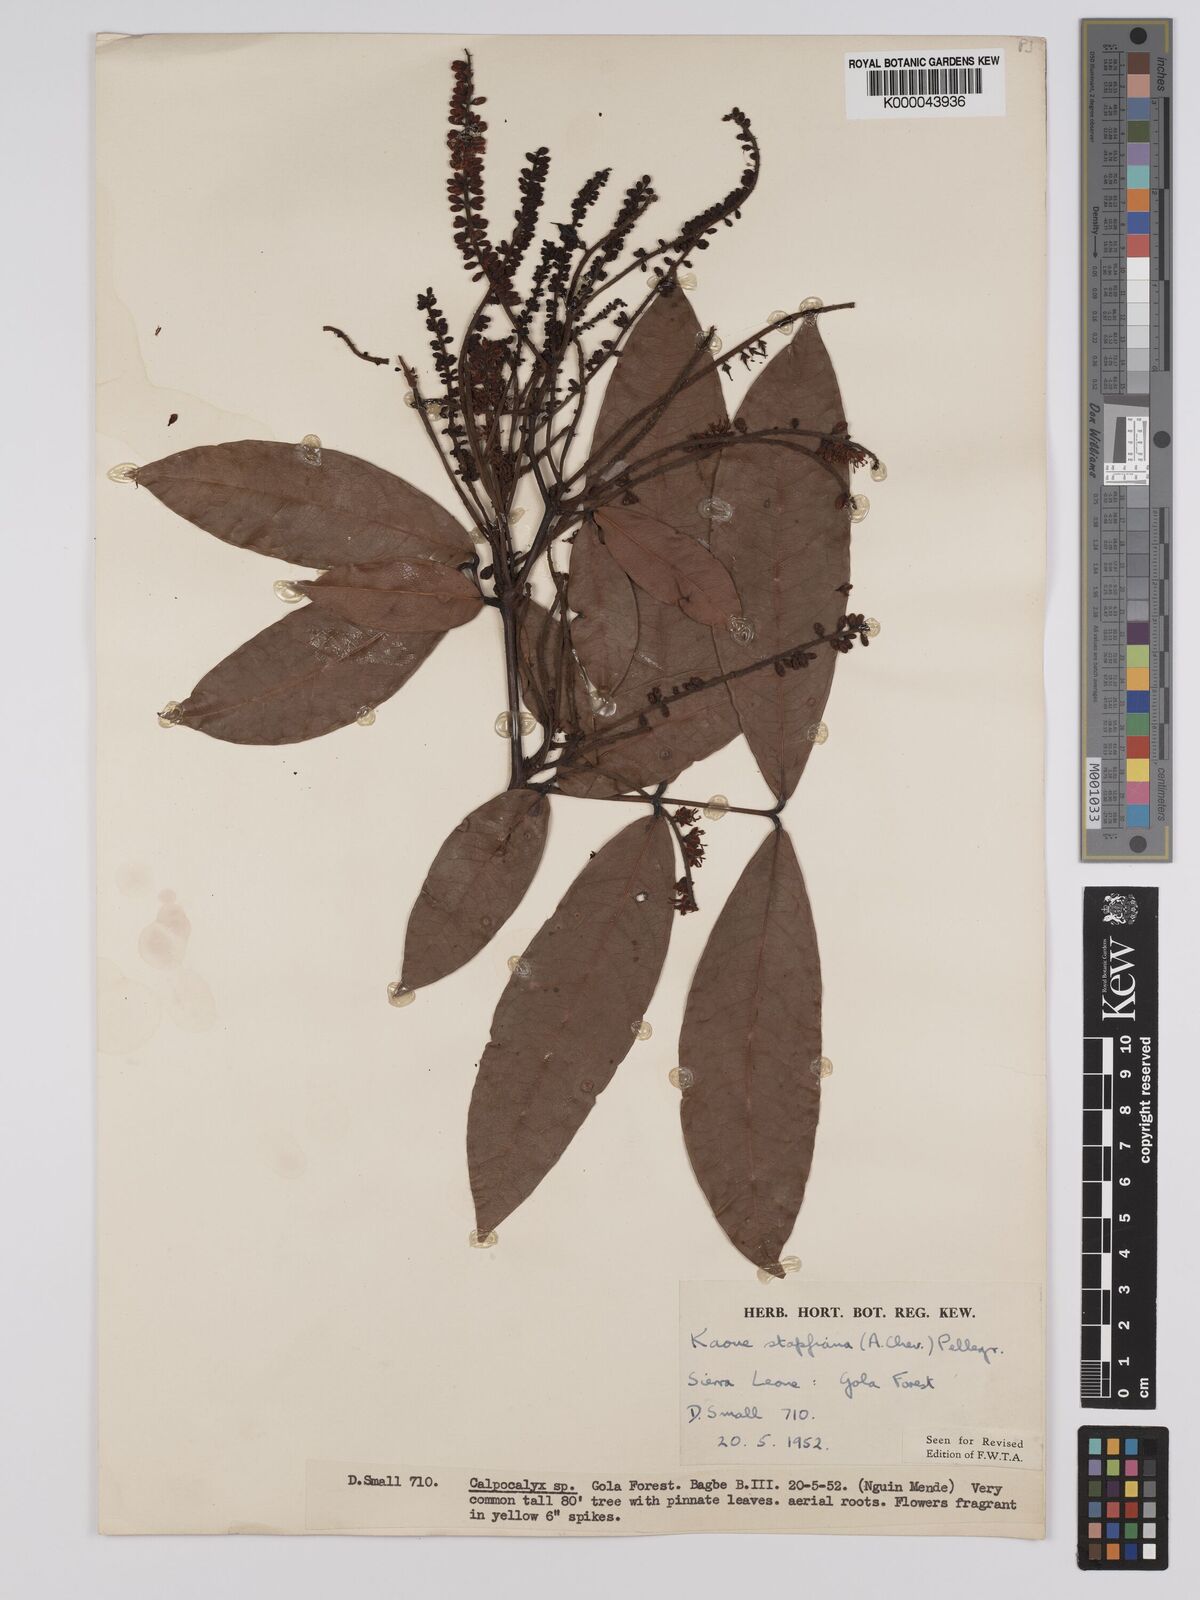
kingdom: Plantae
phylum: Tracheophyta
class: Magnoliopsida
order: Fabales
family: Fabaceae
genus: Stachyothyrsus
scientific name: Stachyothyrsus
